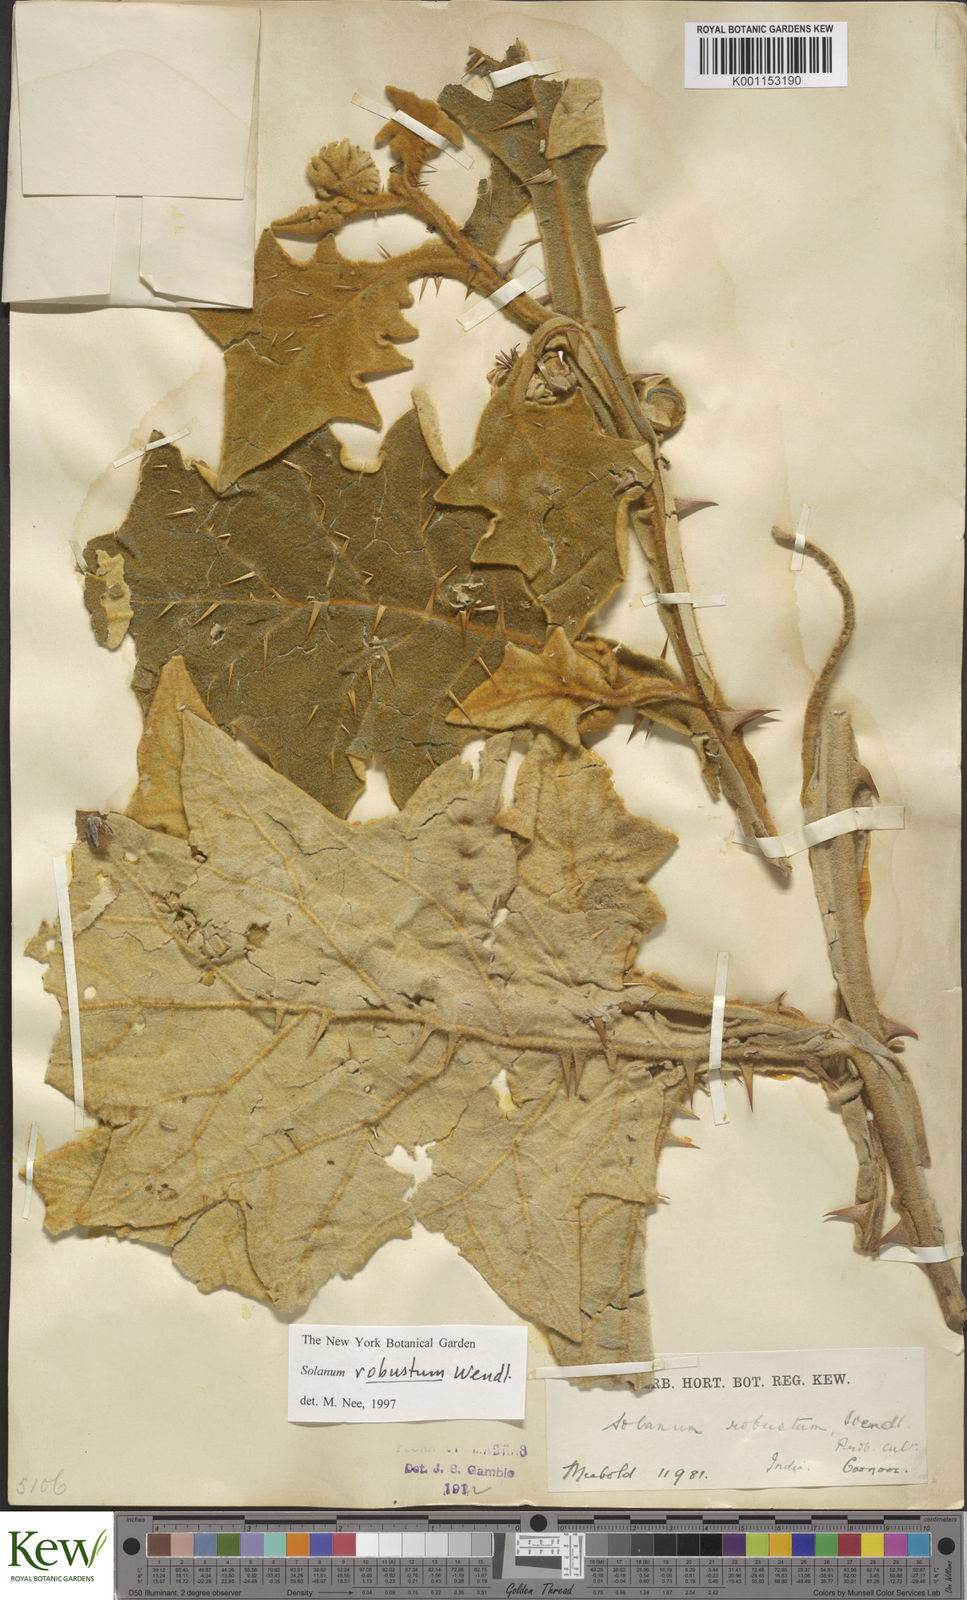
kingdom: Plantae
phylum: Tracheophyta
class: Magnoliopsida
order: Solanales
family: Solanaceae
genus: Solanum
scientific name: Solanum robustum
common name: Shrubby nightshade
